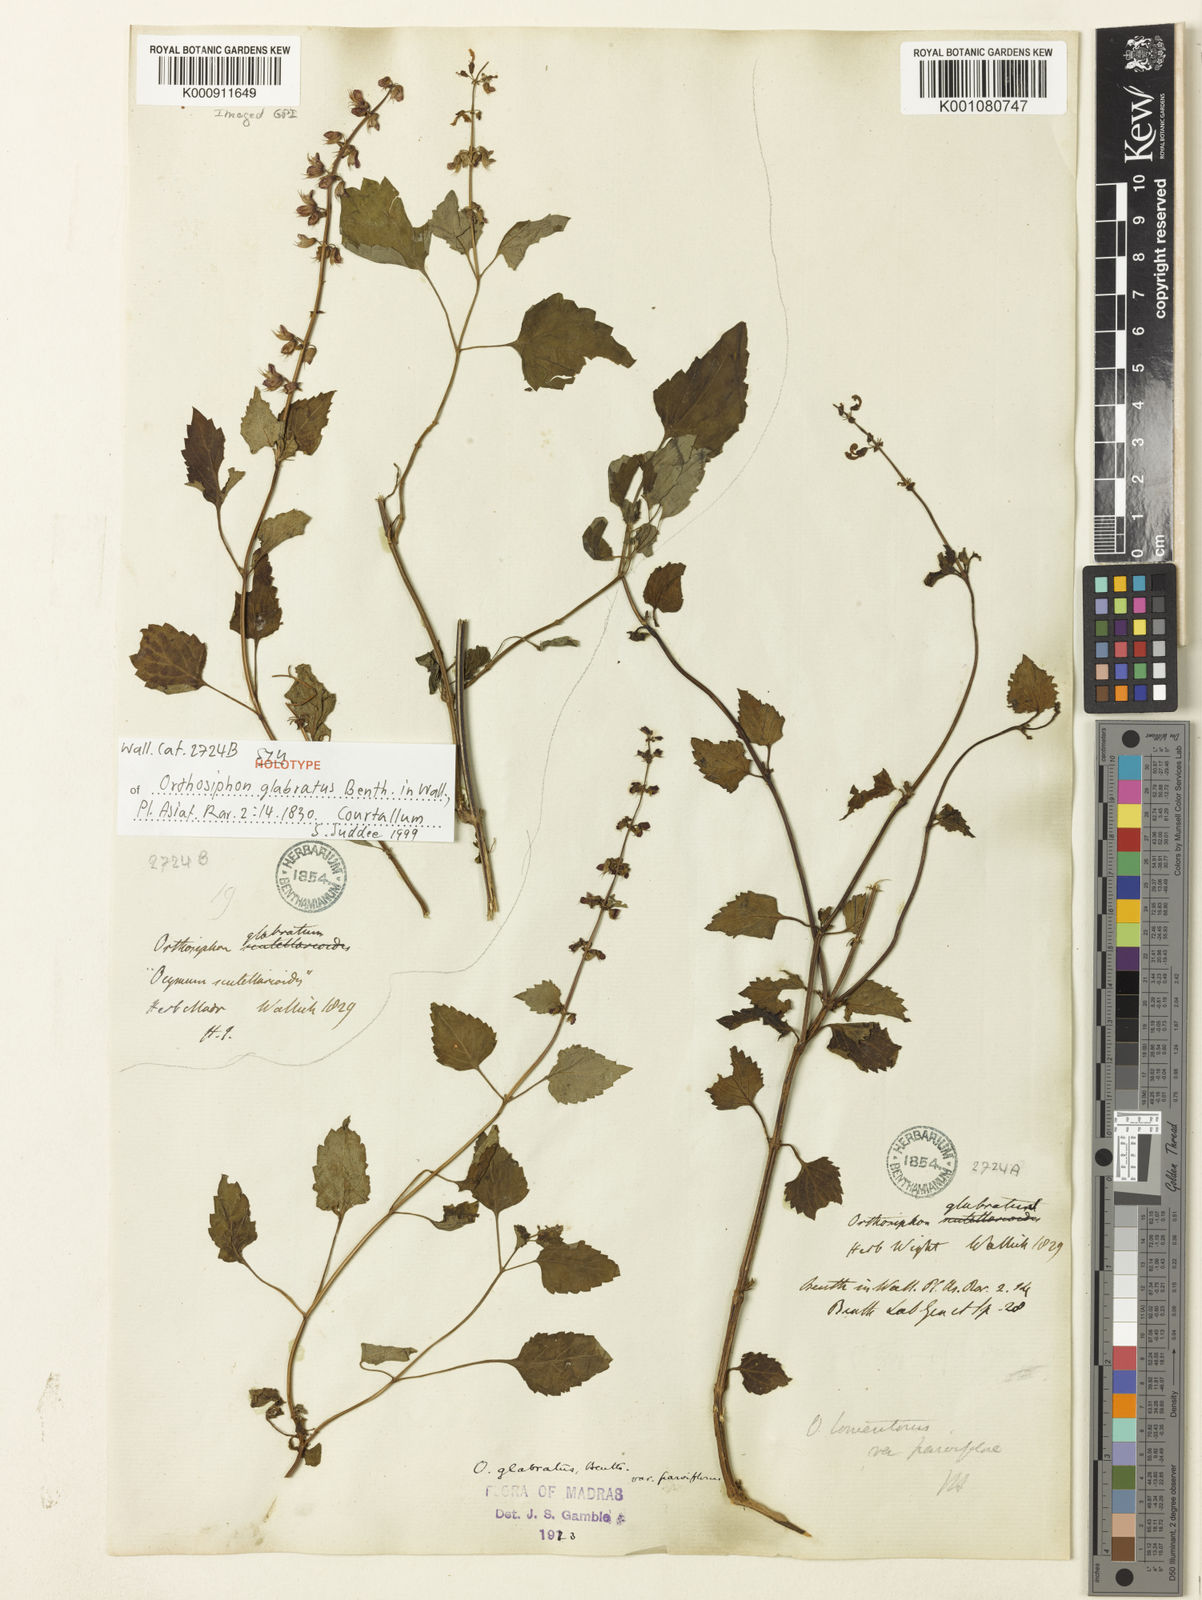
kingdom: Plantae
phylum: Tracheophyta
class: Magnoliopsida
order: Lamiales
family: Lamiaceae
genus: Orthosiphon
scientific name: Orthosiphon thymiflorus
